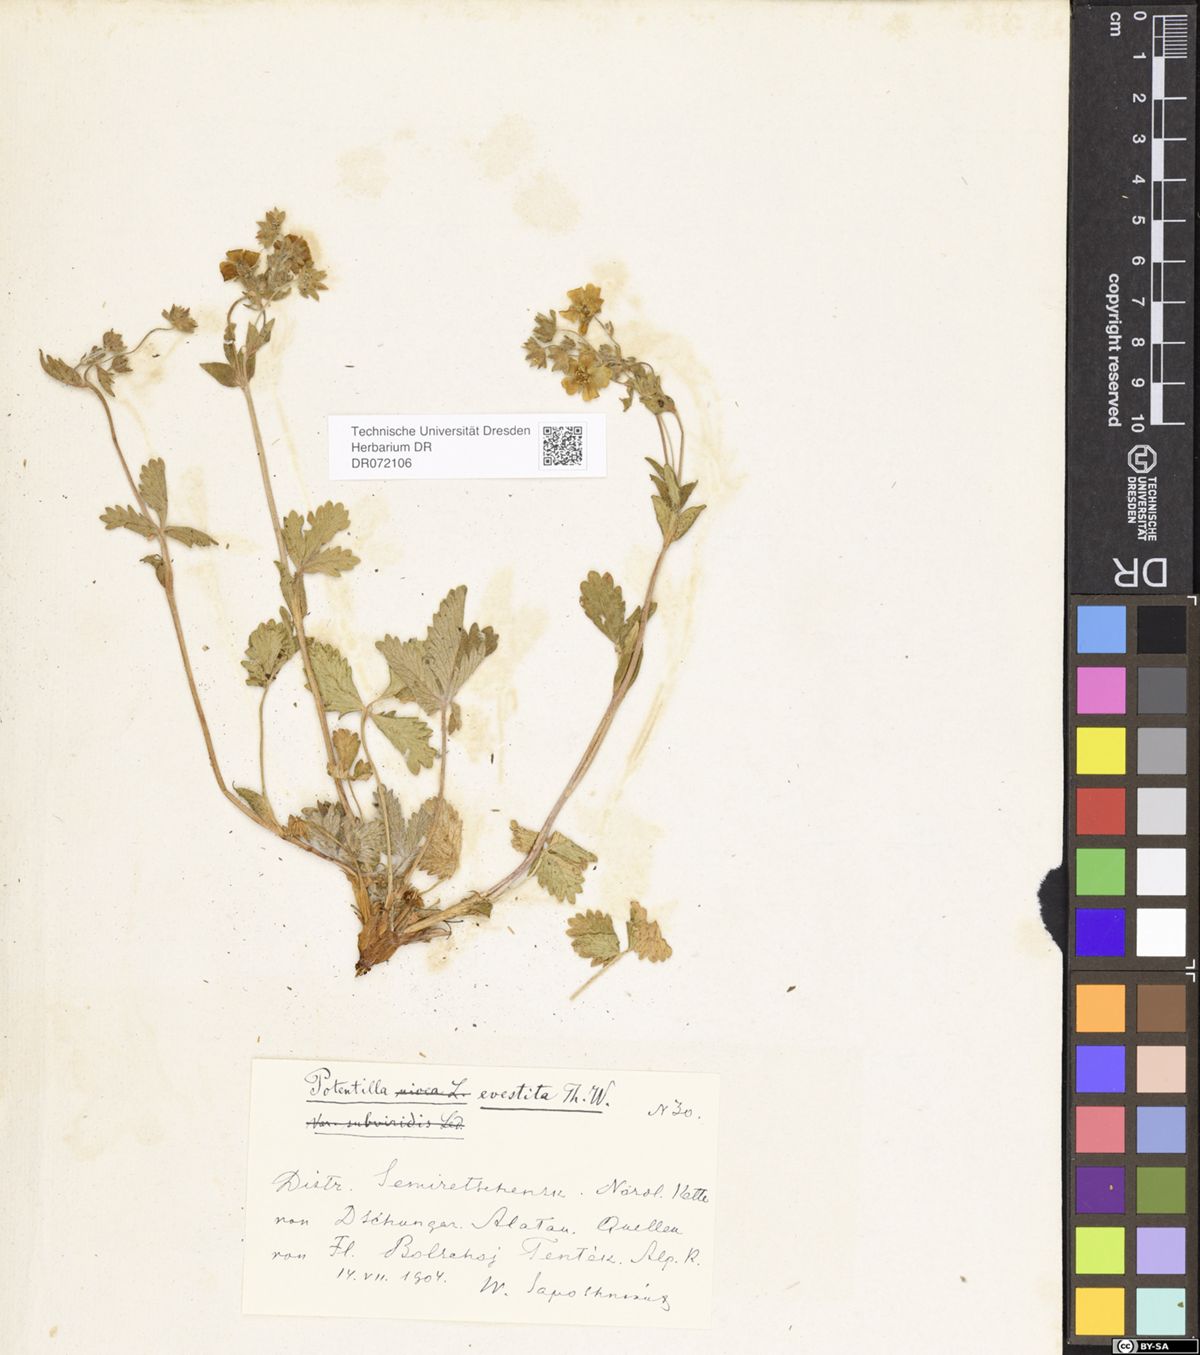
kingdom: Plantae
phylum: Tracheophyta
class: Magnoliopsida
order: Rosales
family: Rosaceae
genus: Potentilla
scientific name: Potentilla evestita
